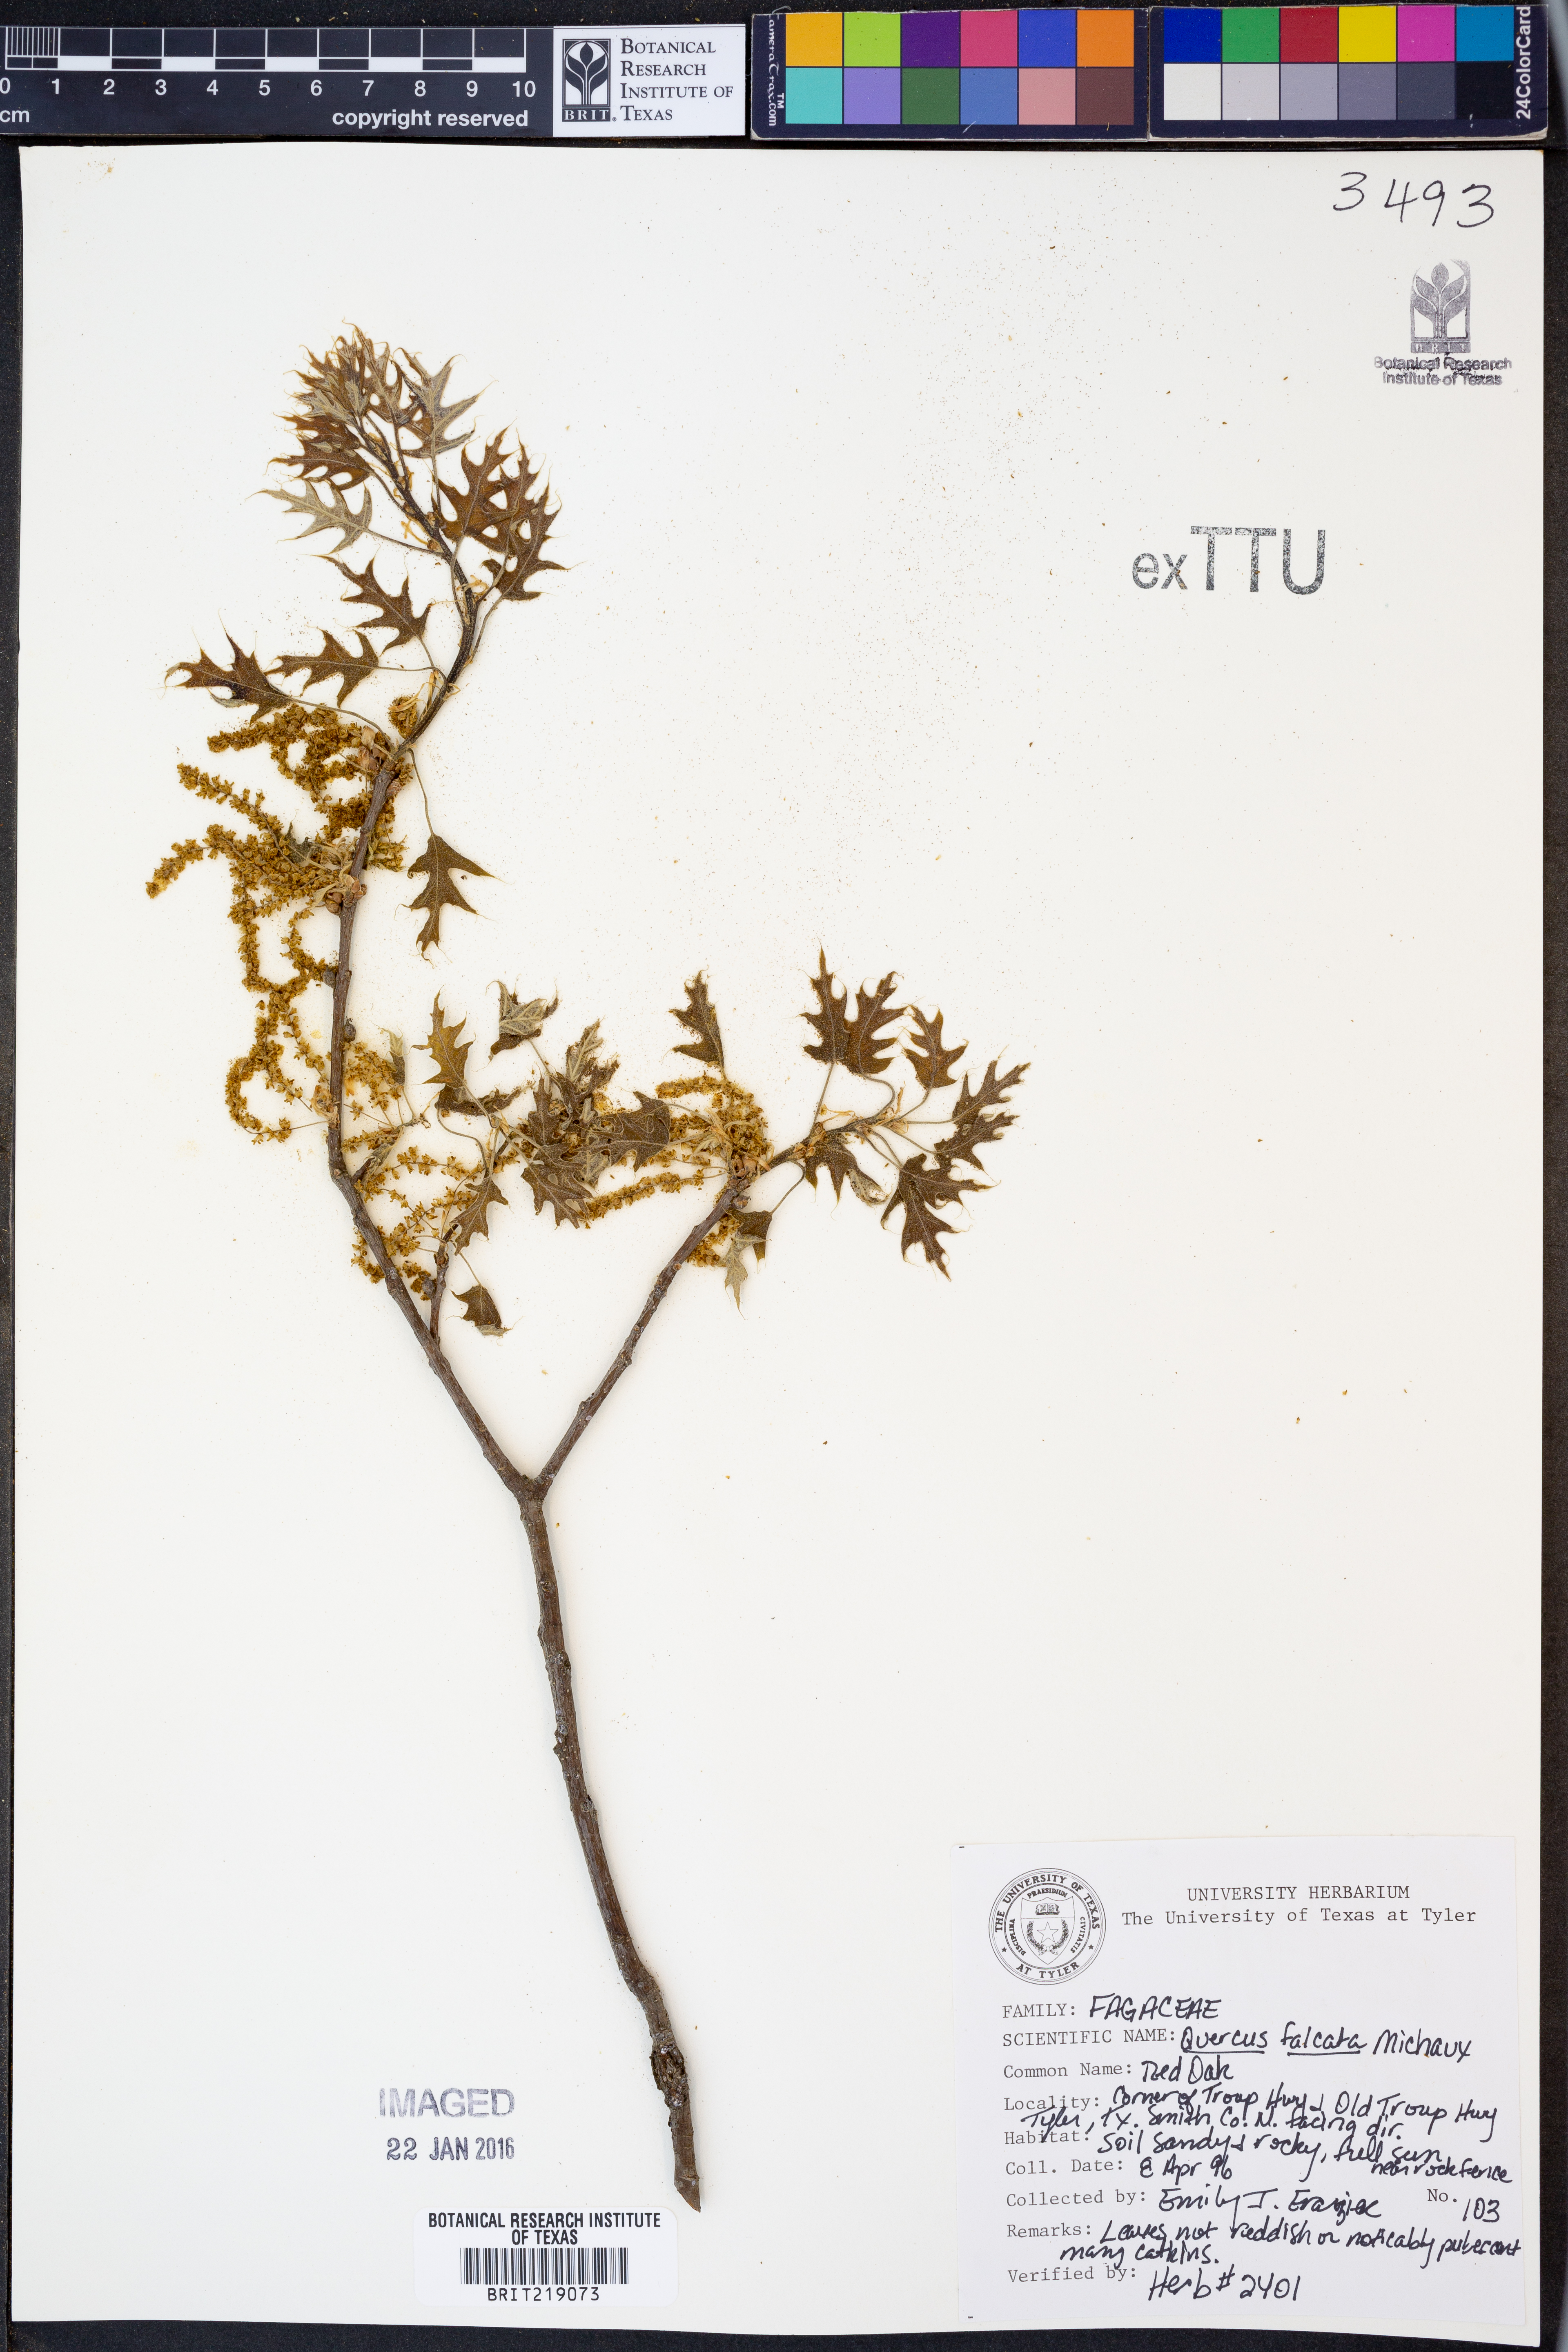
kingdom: Plantae
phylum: Tracheophyta
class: Magnoliopsida
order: Fagales
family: Fagaceae
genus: Quercus
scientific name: Quercus falcata
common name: Southern red oak
